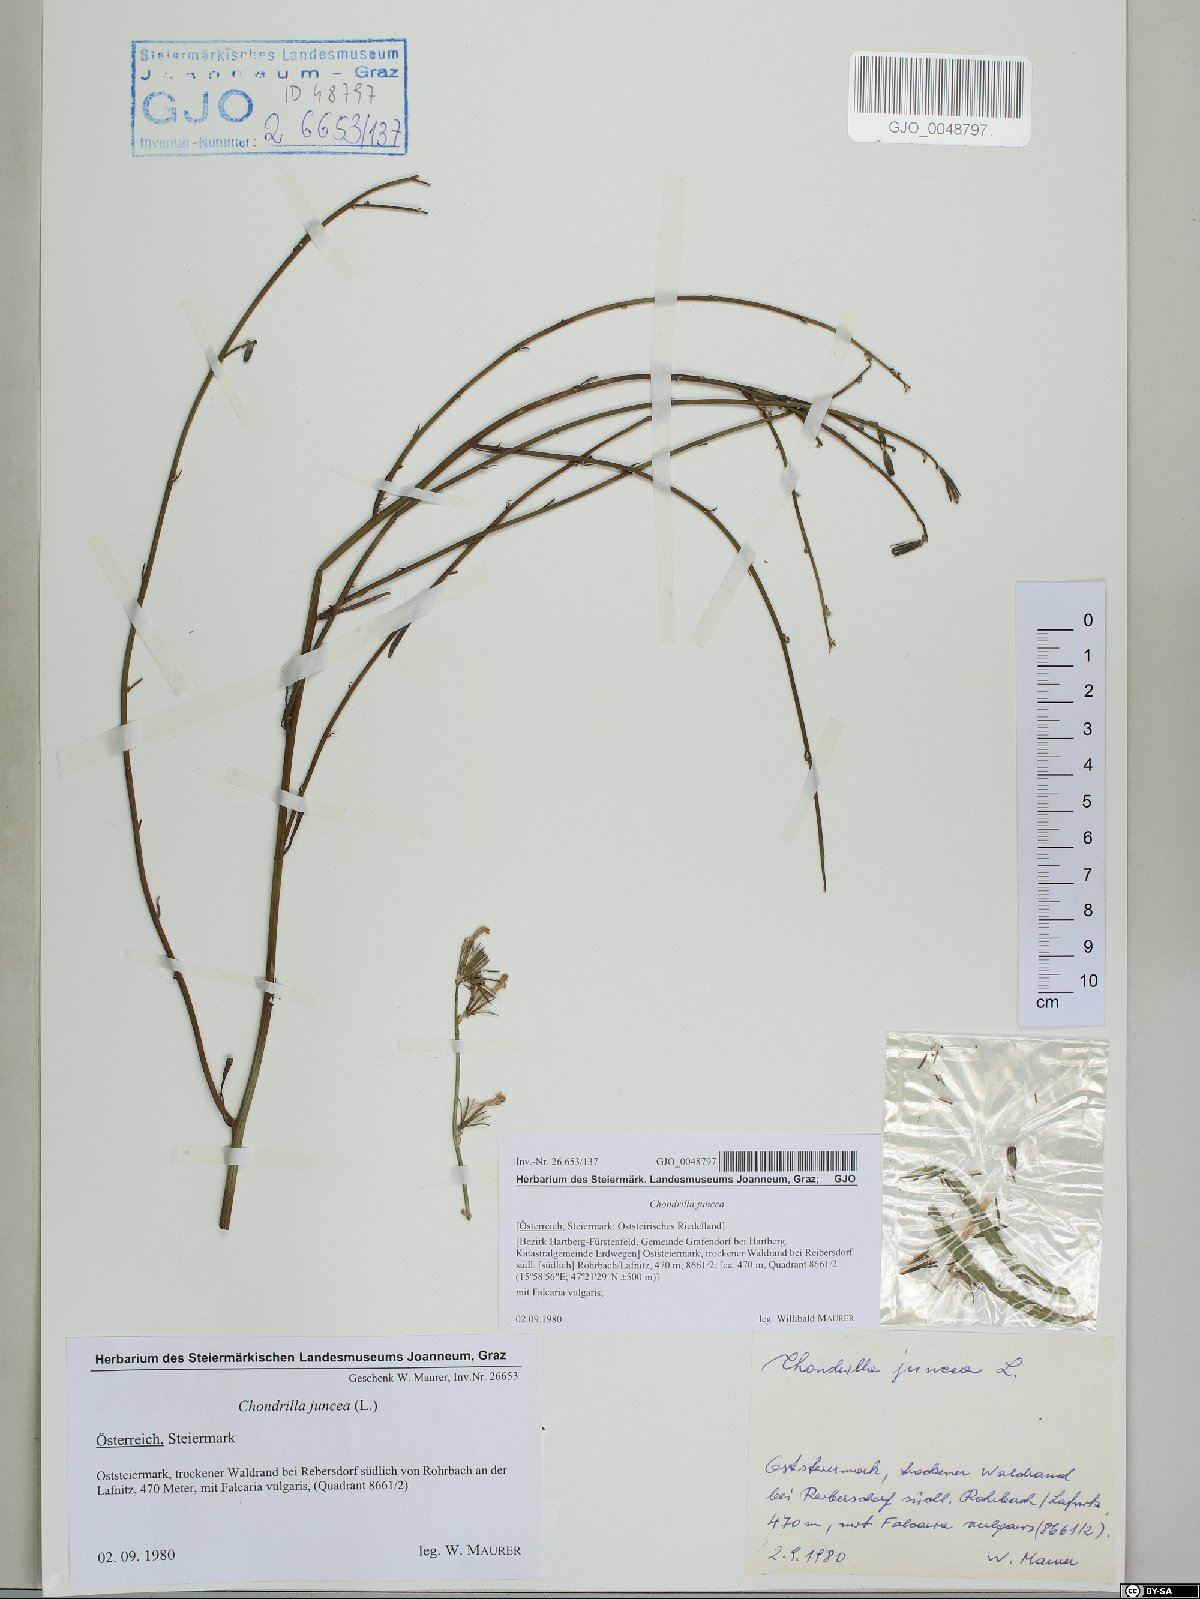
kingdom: Plantae
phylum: Tracheophyta
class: Magnoliopsida
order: Asterales
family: Asteraceae
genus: Chondrilla
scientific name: Chondrilla juncea
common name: Skeleton weed
